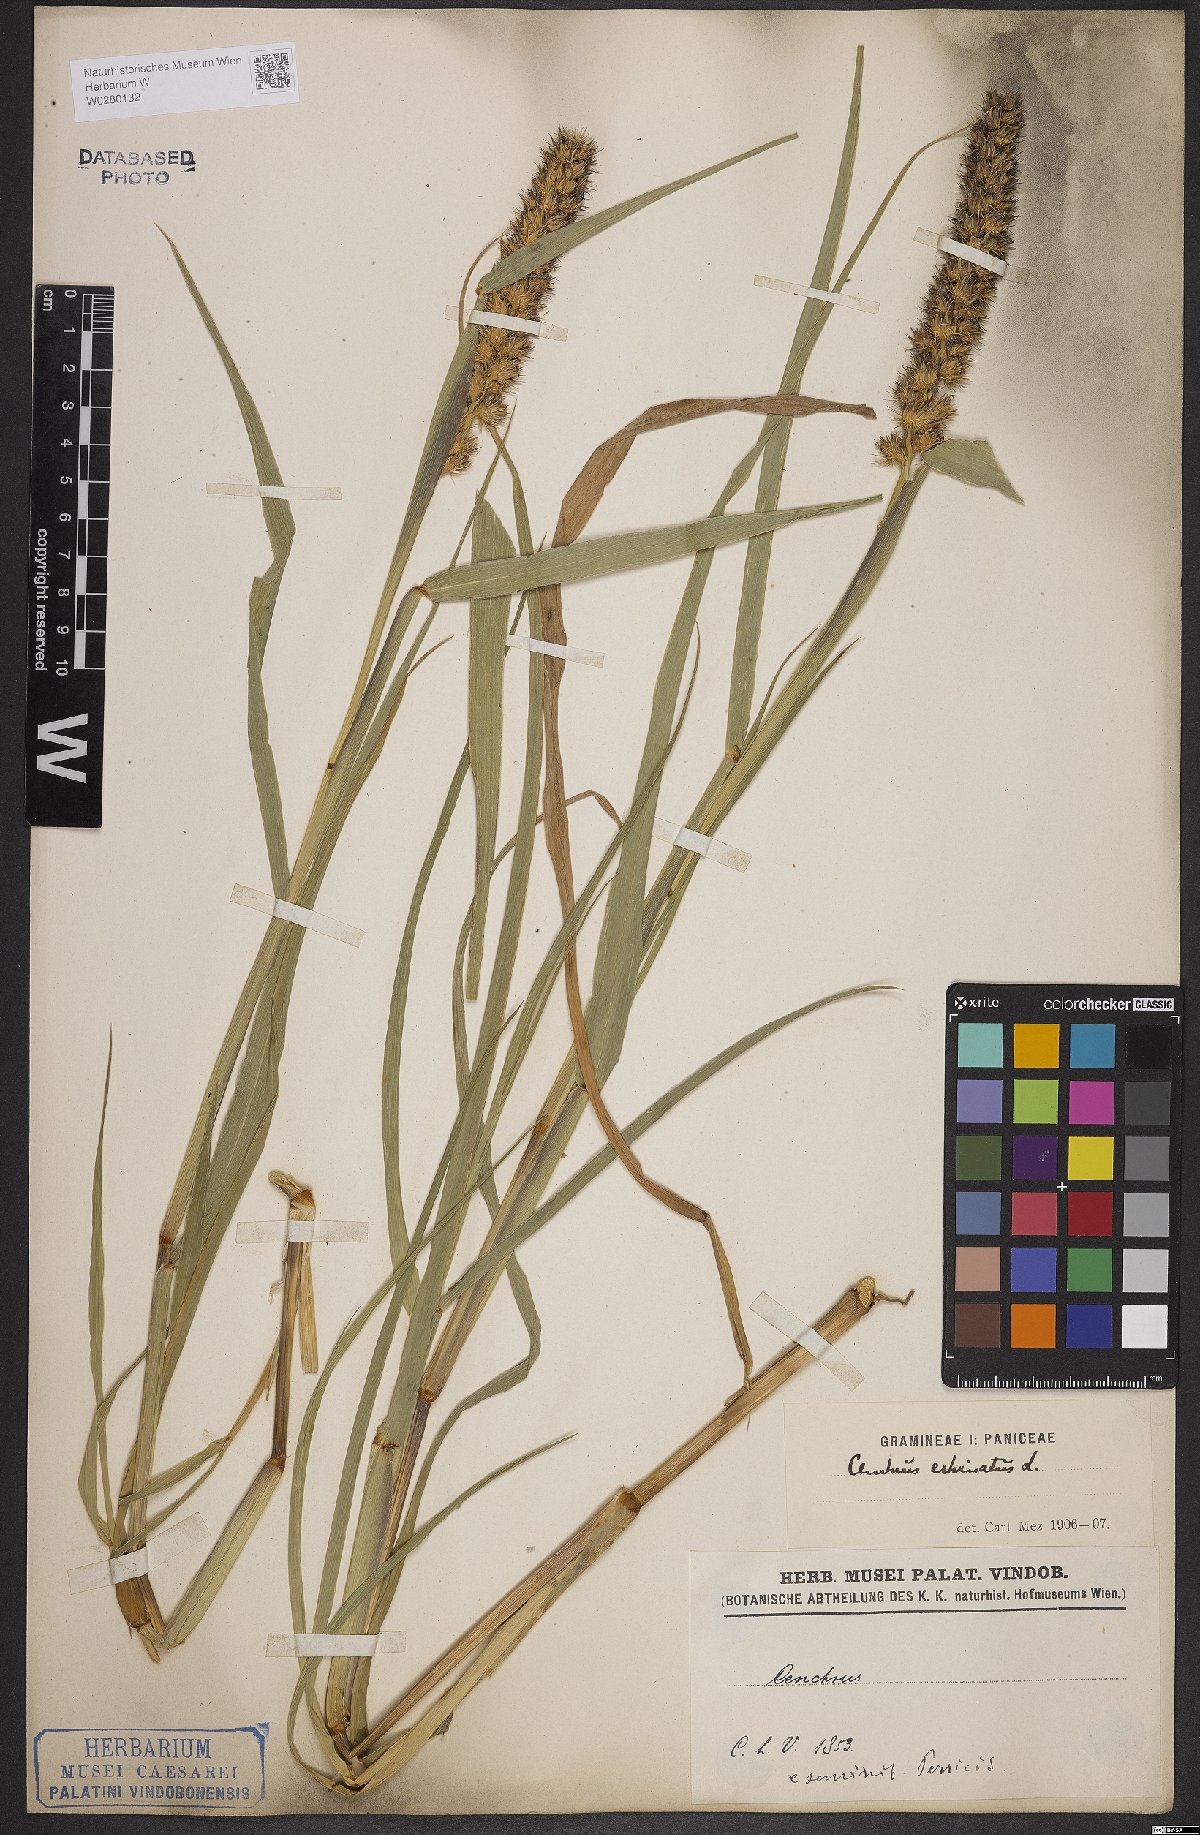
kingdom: Plantae
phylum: Tracheophyta
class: Liliopsida
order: Poales
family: Poaceae
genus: Cenchrus
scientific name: Cenchrus echinatus
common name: Southern sandbur
